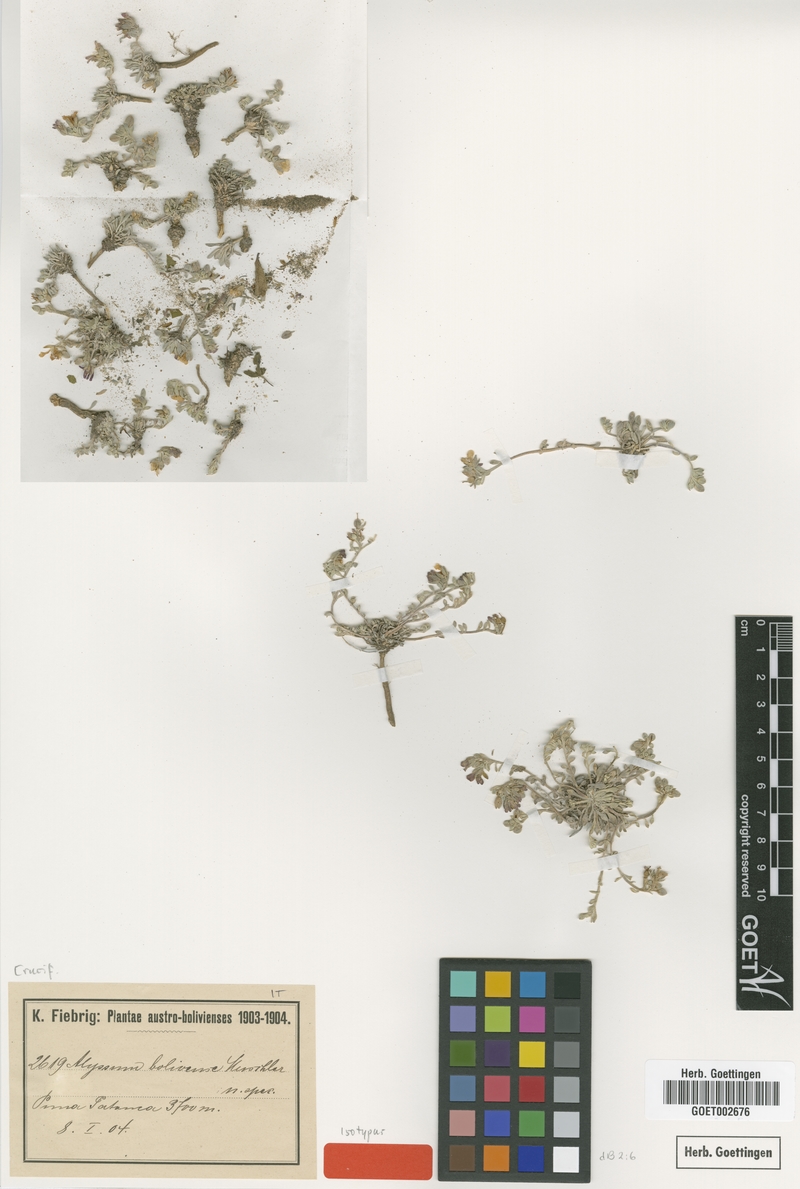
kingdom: Plantae
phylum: Tracheophyta
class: Magnoliopsida
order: Brassicales
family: Brassicaceae
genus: Physaria
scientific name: Physaria urbaniana
